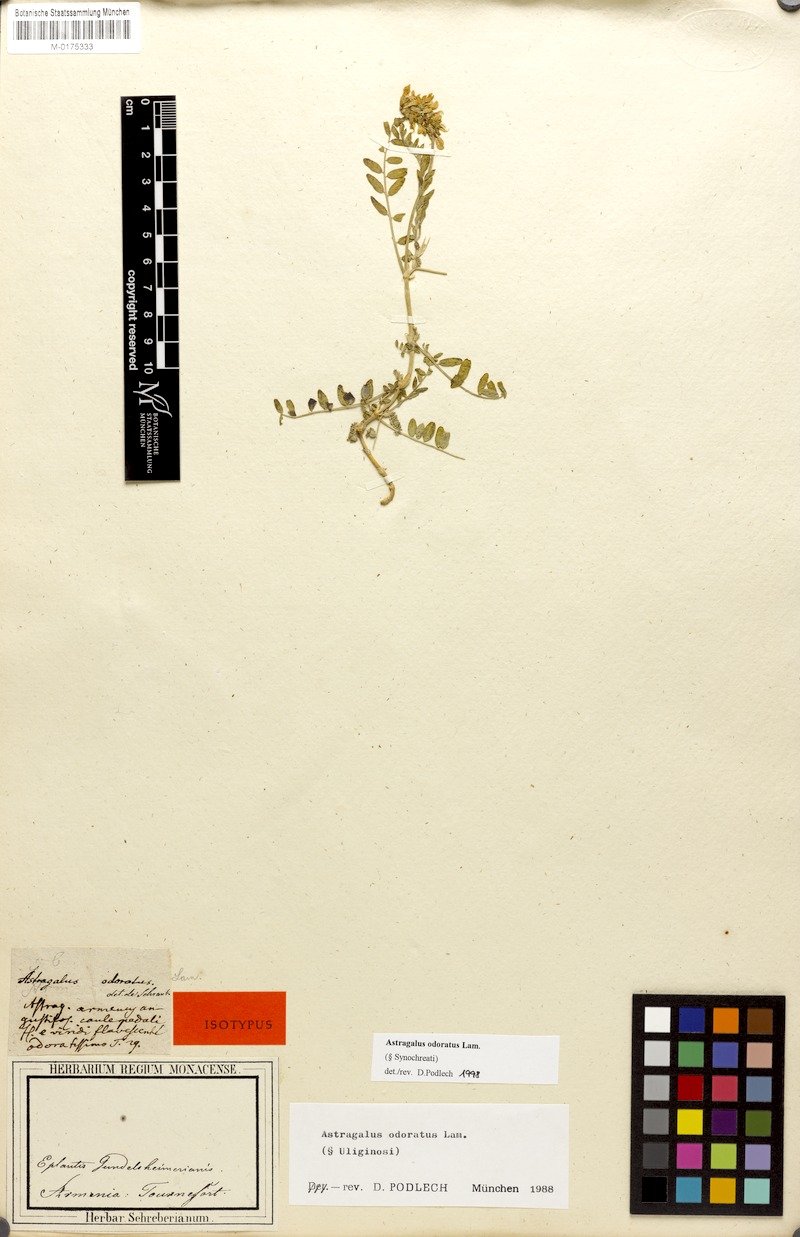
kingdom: Plantae
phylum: Tracheophyta
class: Magnoliopsida
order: Fabales
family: Fabaceae
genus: Astragalus
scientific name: Astragalus odoratus
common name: Lesser milk-vetch
